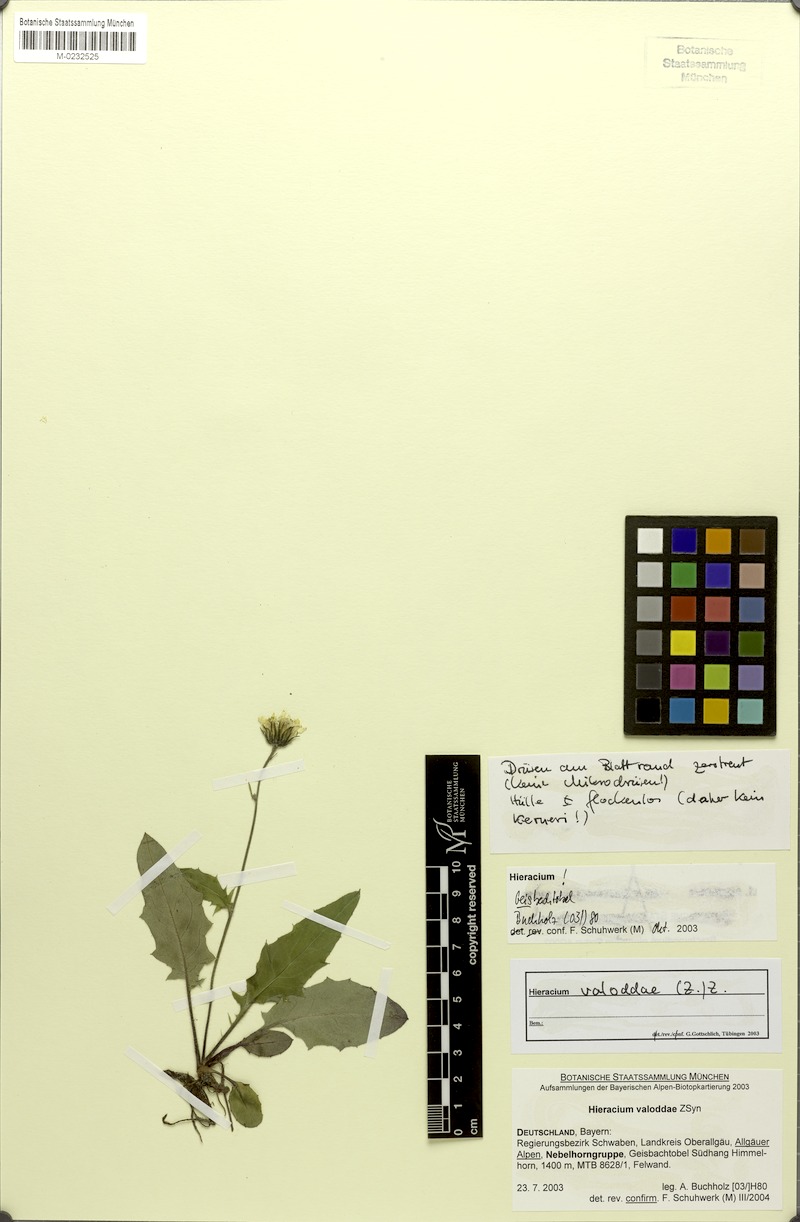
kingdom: Plantae
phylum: Tracheophyta
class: Magnoliopsida
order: Asterales
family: Asteraceae
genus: Hieracium
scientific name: Hieracium valoddae
